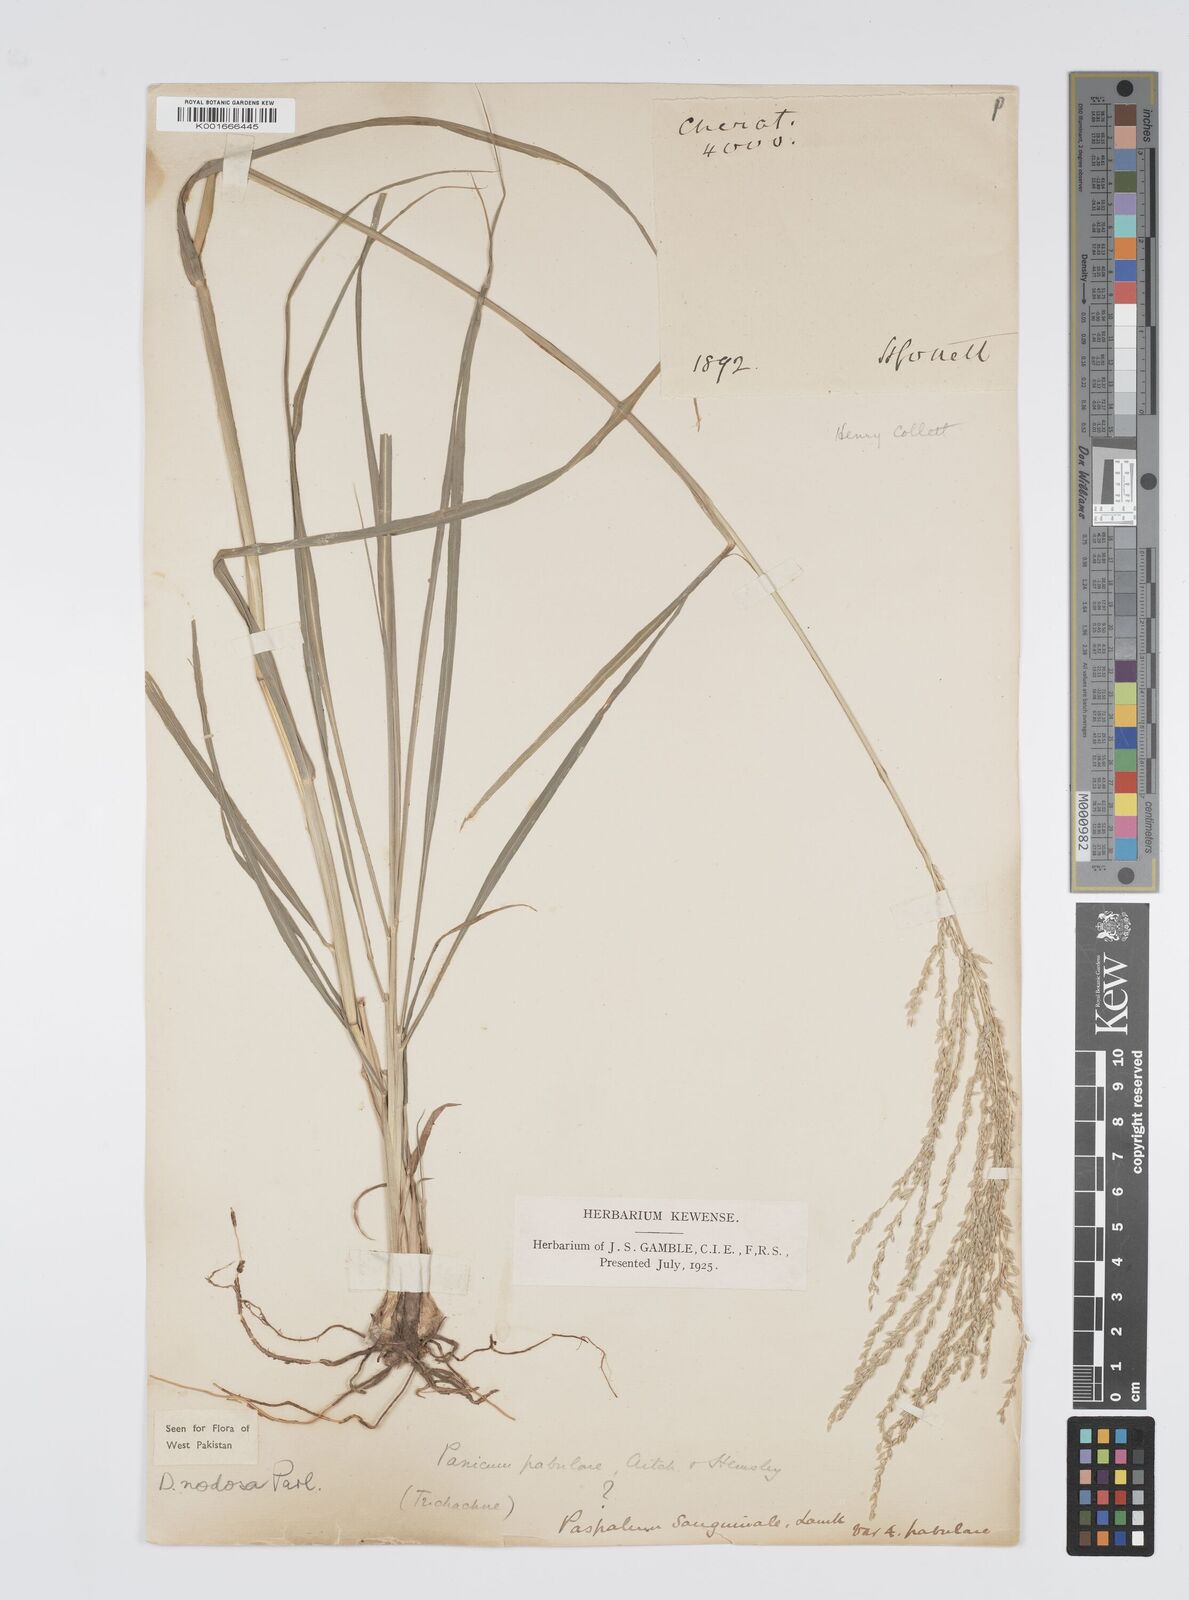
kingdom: Plantae
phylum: Tracheophyta
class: Liliopsida
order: Poales
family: Poaceae
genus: Digitaria
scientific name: Digitaria nodosa
